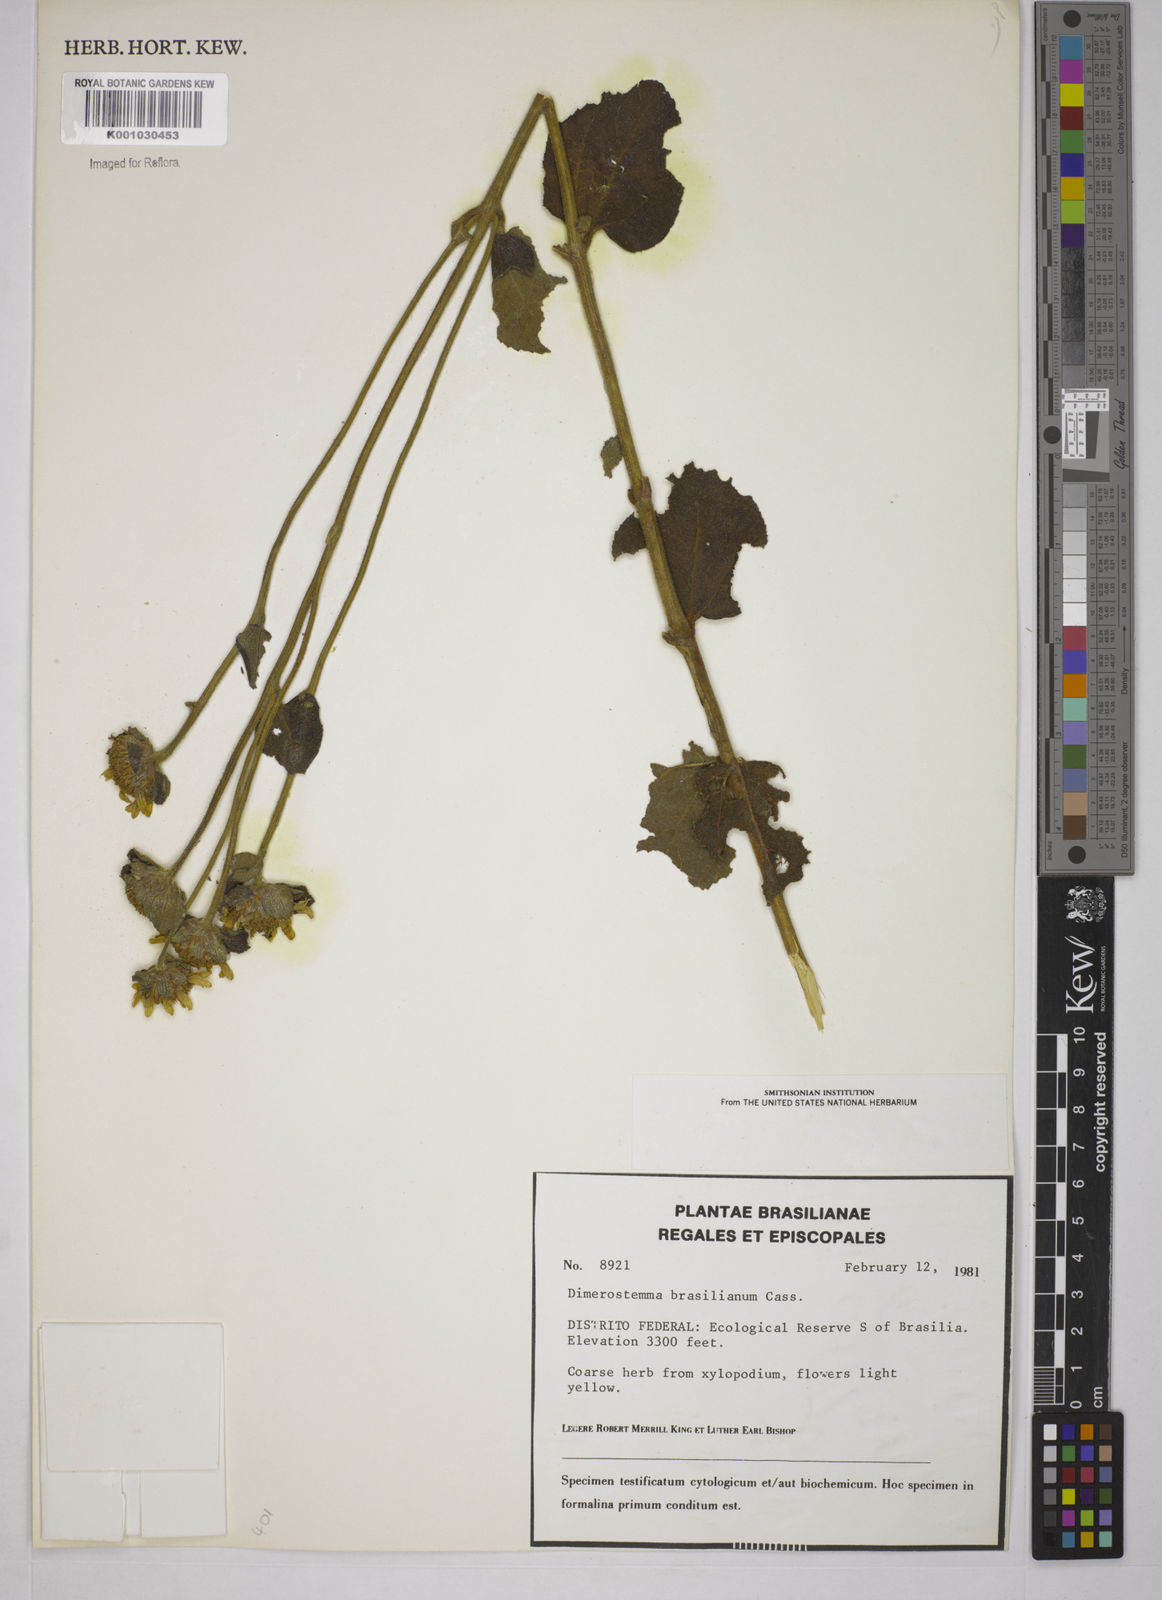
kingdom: Plantae
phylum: Tracheophyta
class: Magnoliopsida
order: Asterales
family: Asteraceae
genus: Dimerostemma
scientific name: Dimerostemma brasilianum
